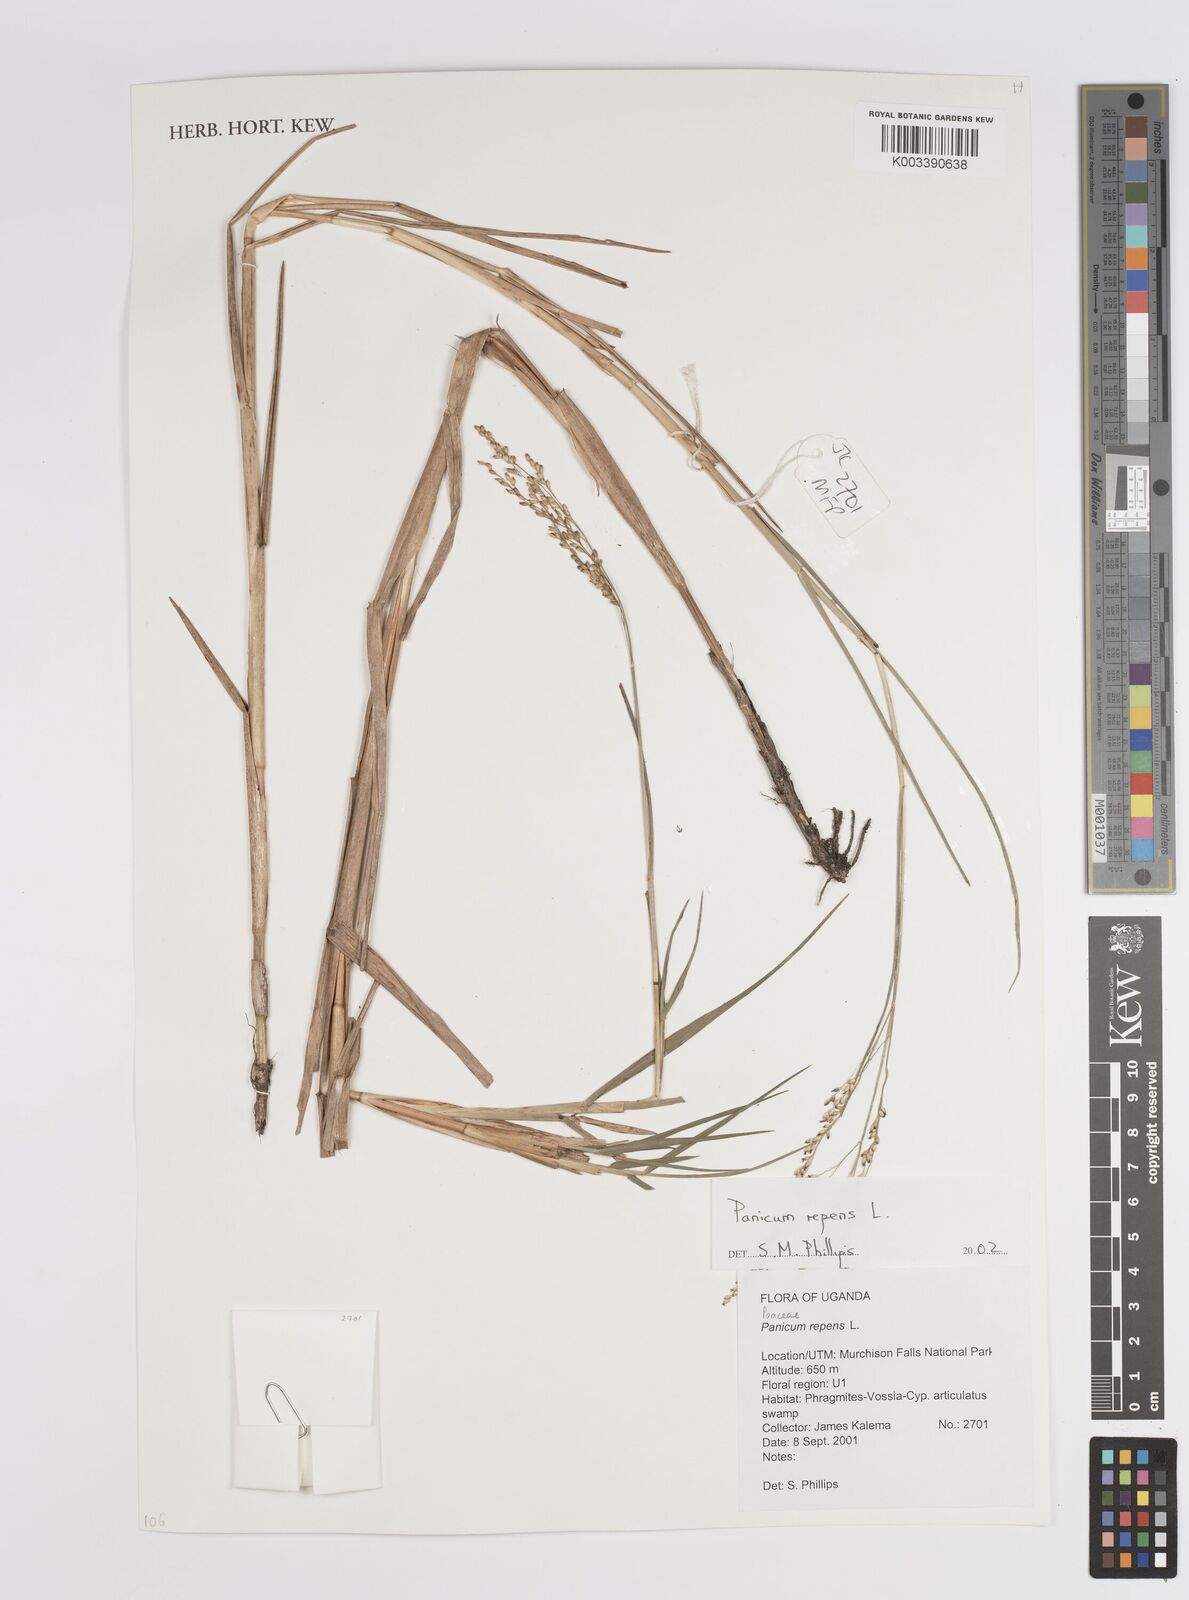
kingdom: Plantae
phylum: Tracheophyta
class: Liliopsida
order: Poales
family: Poaceae
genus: Panicum
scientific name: Panicum repens
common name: Torpedo grass
